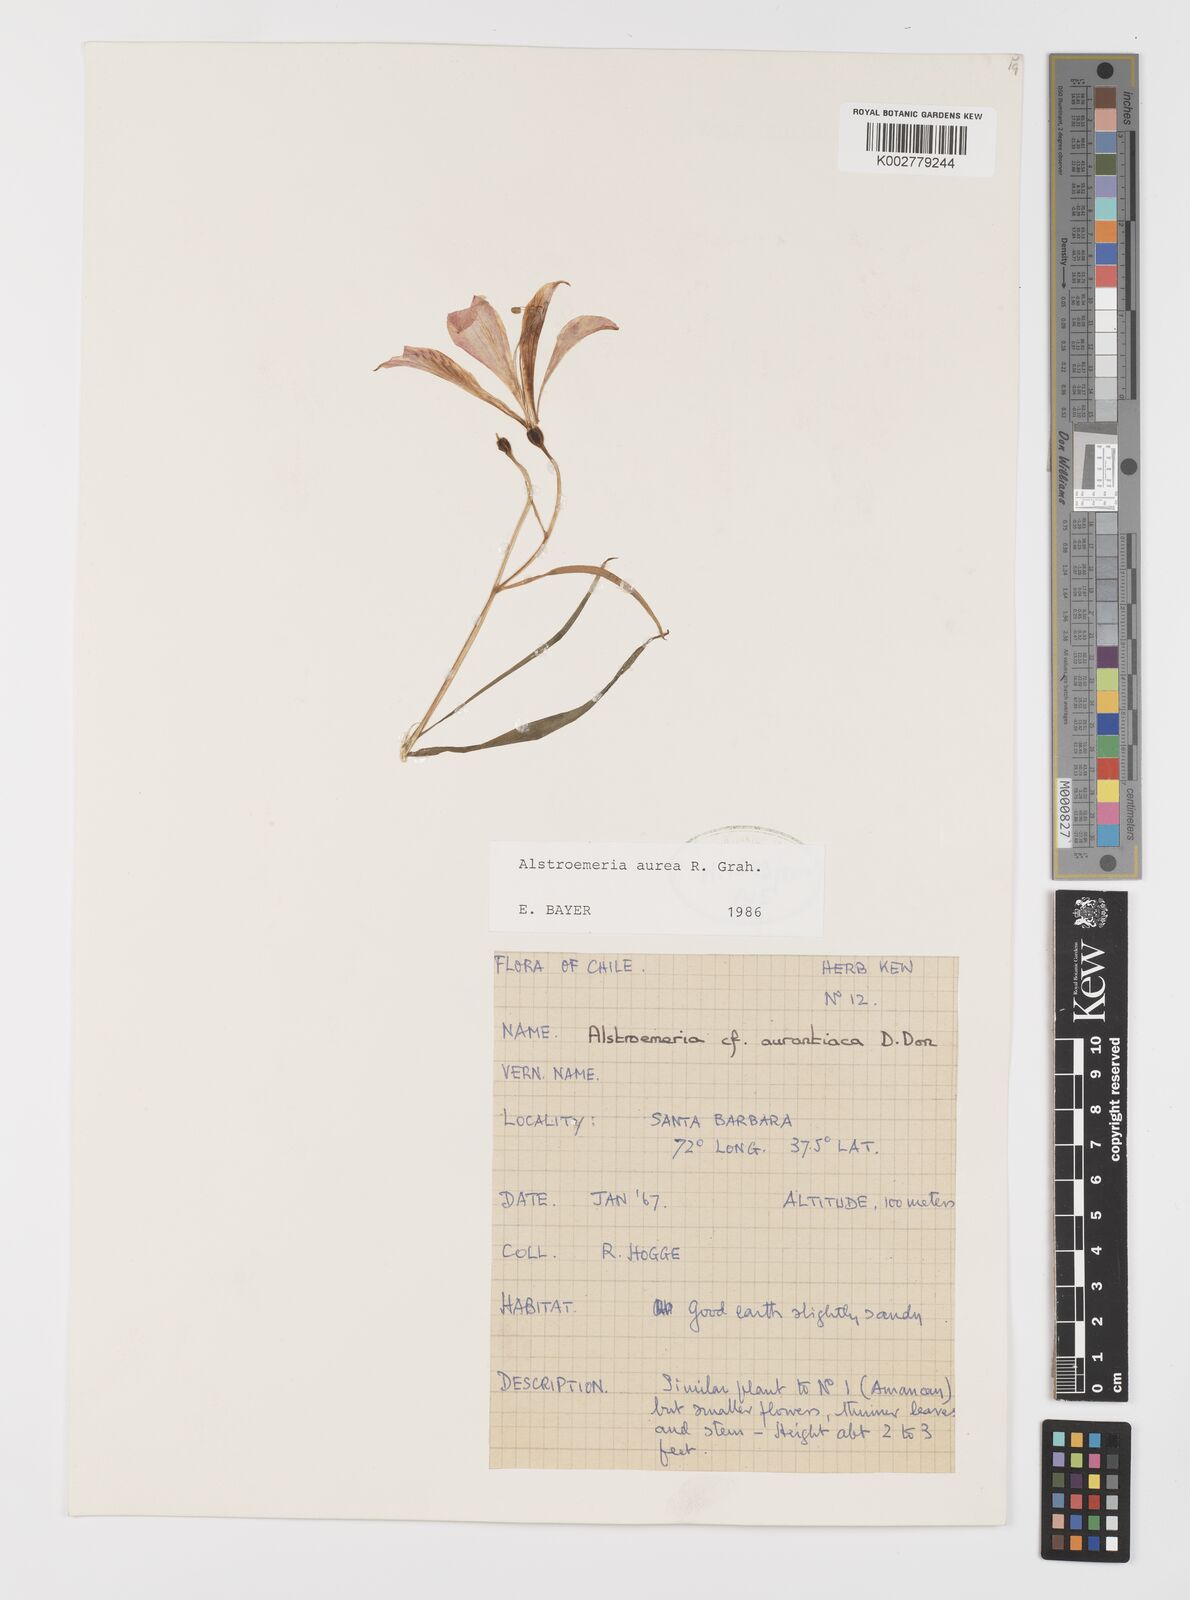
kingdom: Plantae
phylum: Tracheophyta
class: Liliopsida
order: Liliales
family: Alstroemeriaceae
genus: Alstroemeria
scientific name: Alstroemeria aurea
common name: Peruvian lily
